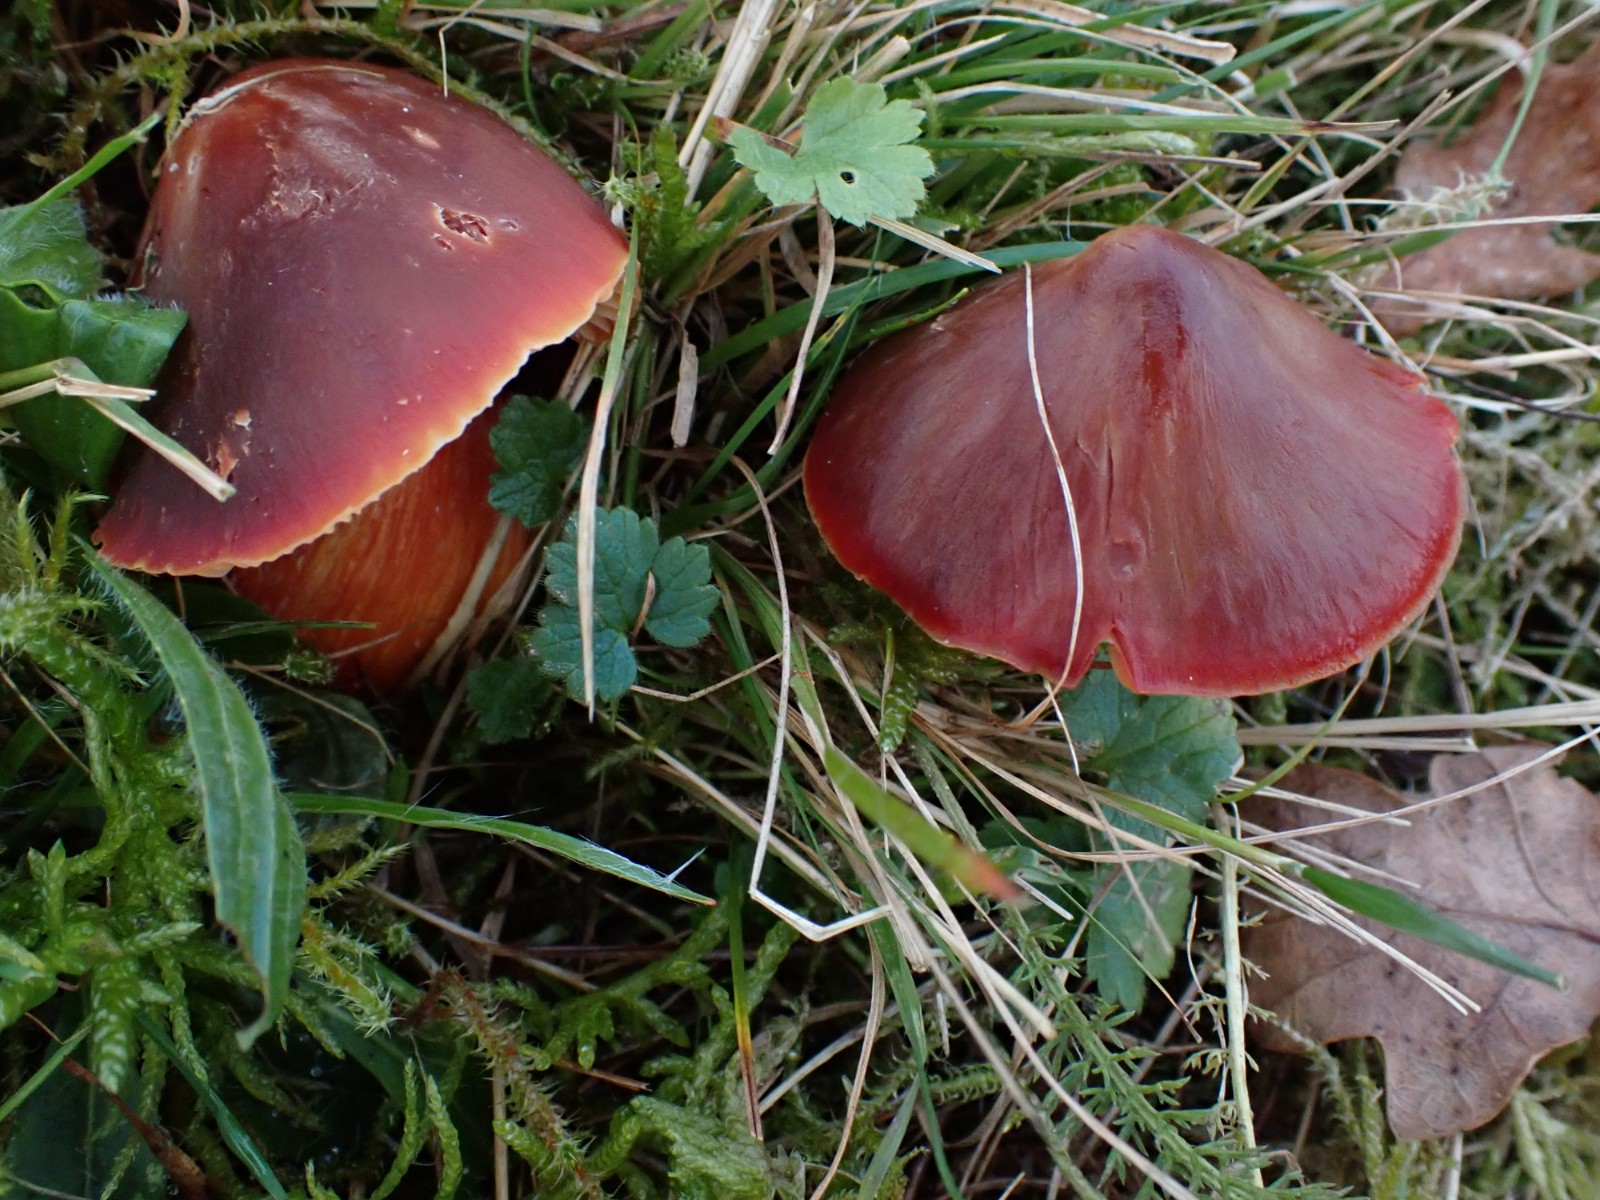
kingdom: Fungi
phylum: Basidiomycota
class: Agaricomycetes
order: Agaricales
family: Hygrophoraceae
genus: Hygrocybe
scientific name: Hygrocybe punicea
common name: skarlagen-vokshat
